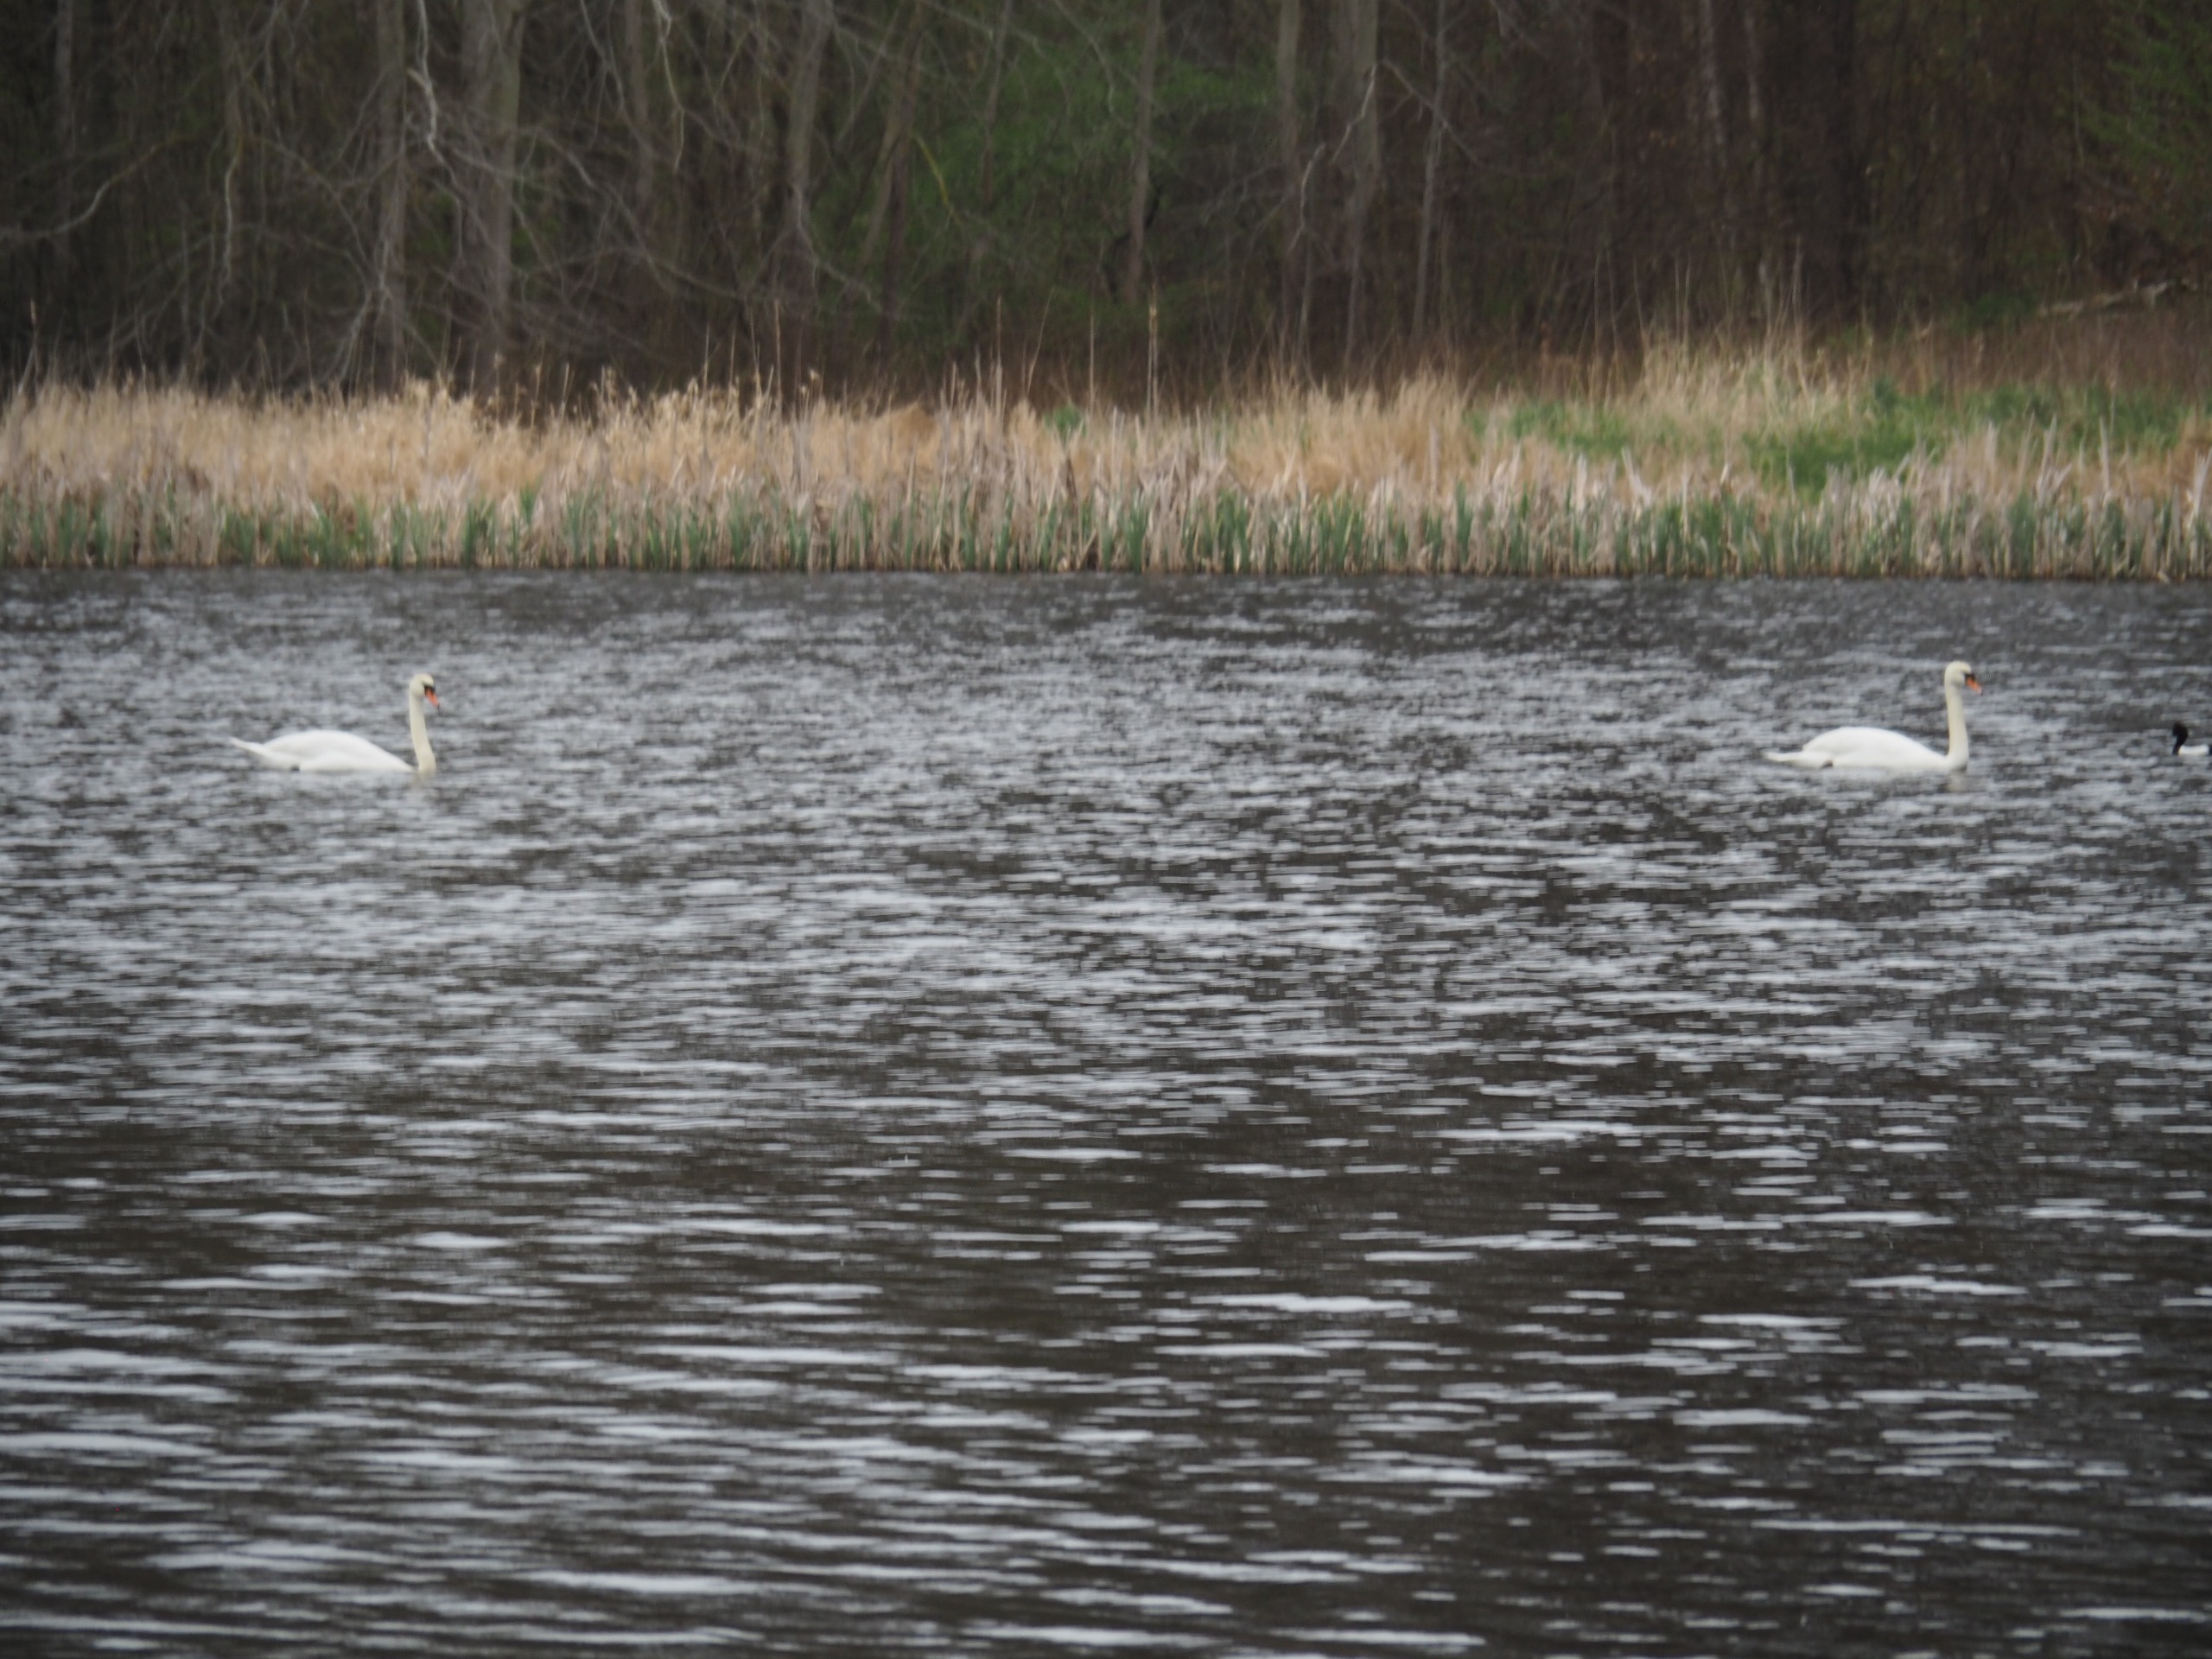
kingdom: Animalia
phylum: Chordata
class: Aves
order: Anseriformes
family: Anatidae
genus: Cygnus
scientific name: Cygnus olor
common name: Knopsvane
